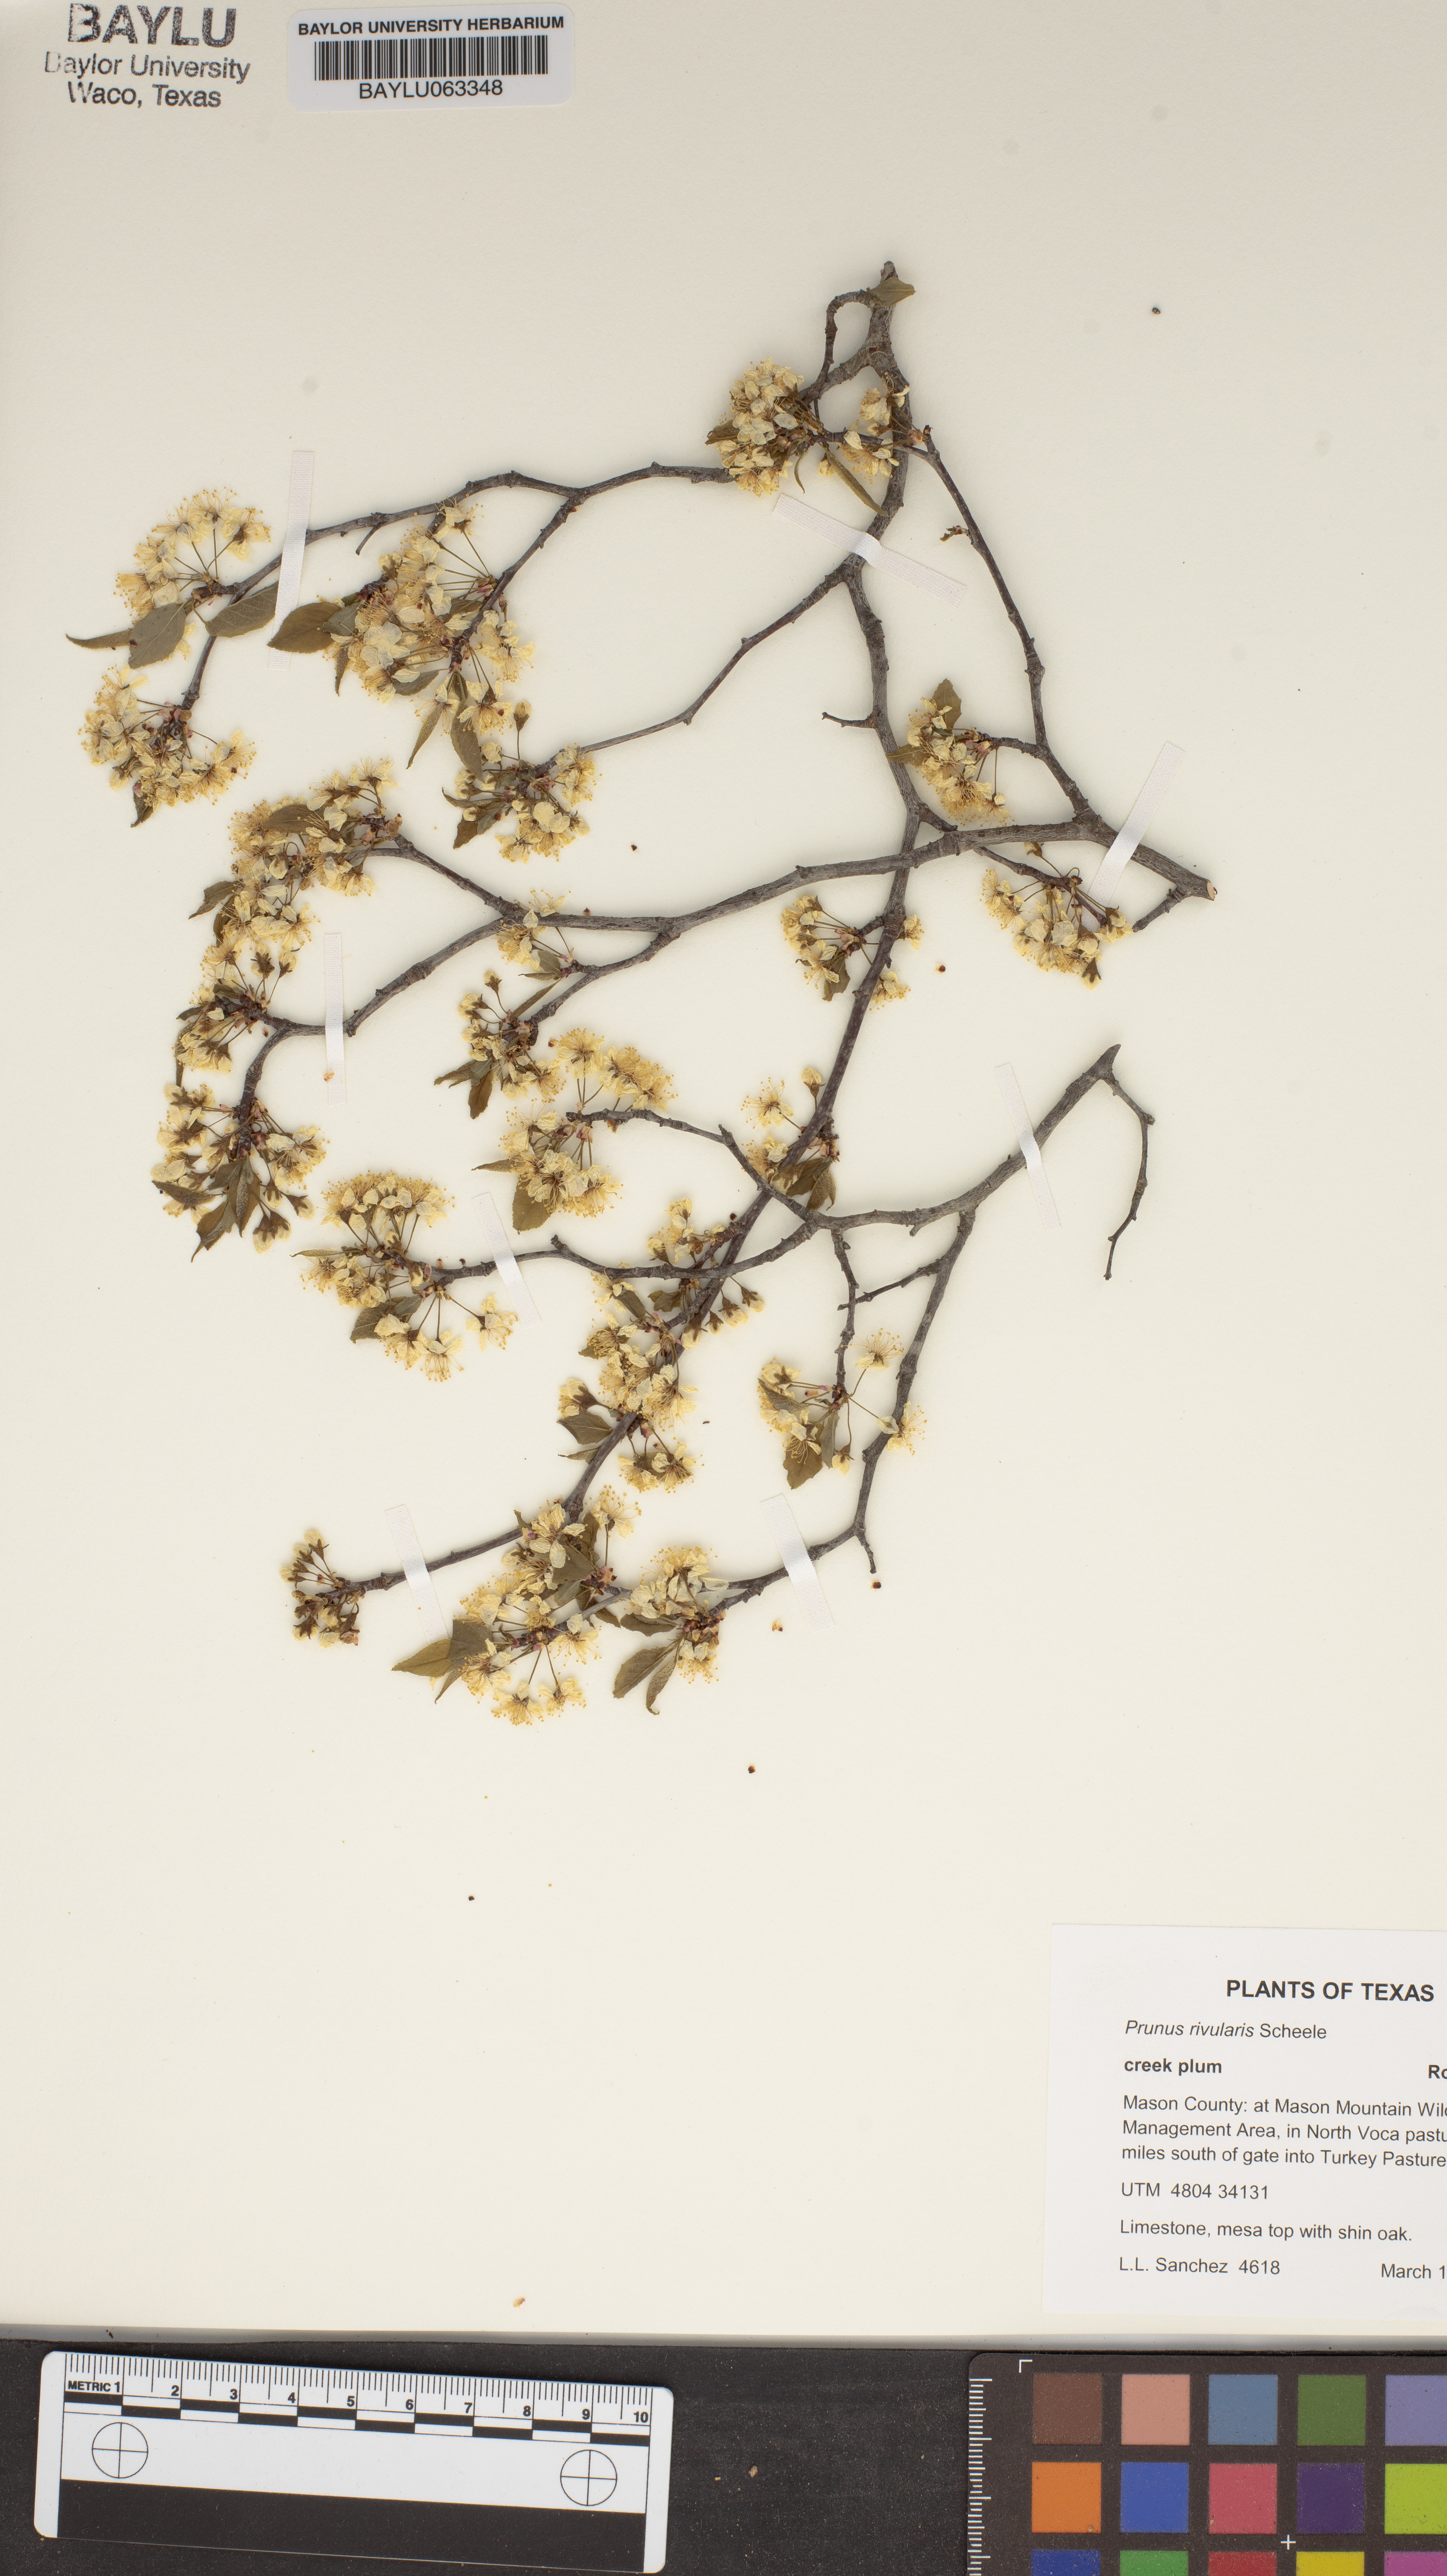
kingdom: Plantae
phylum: Tracheophyta
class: Magnoliopsida
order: Rosales
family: Rosaceae
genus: Prunus
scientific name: Prunus rivularis
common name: Creek plum
